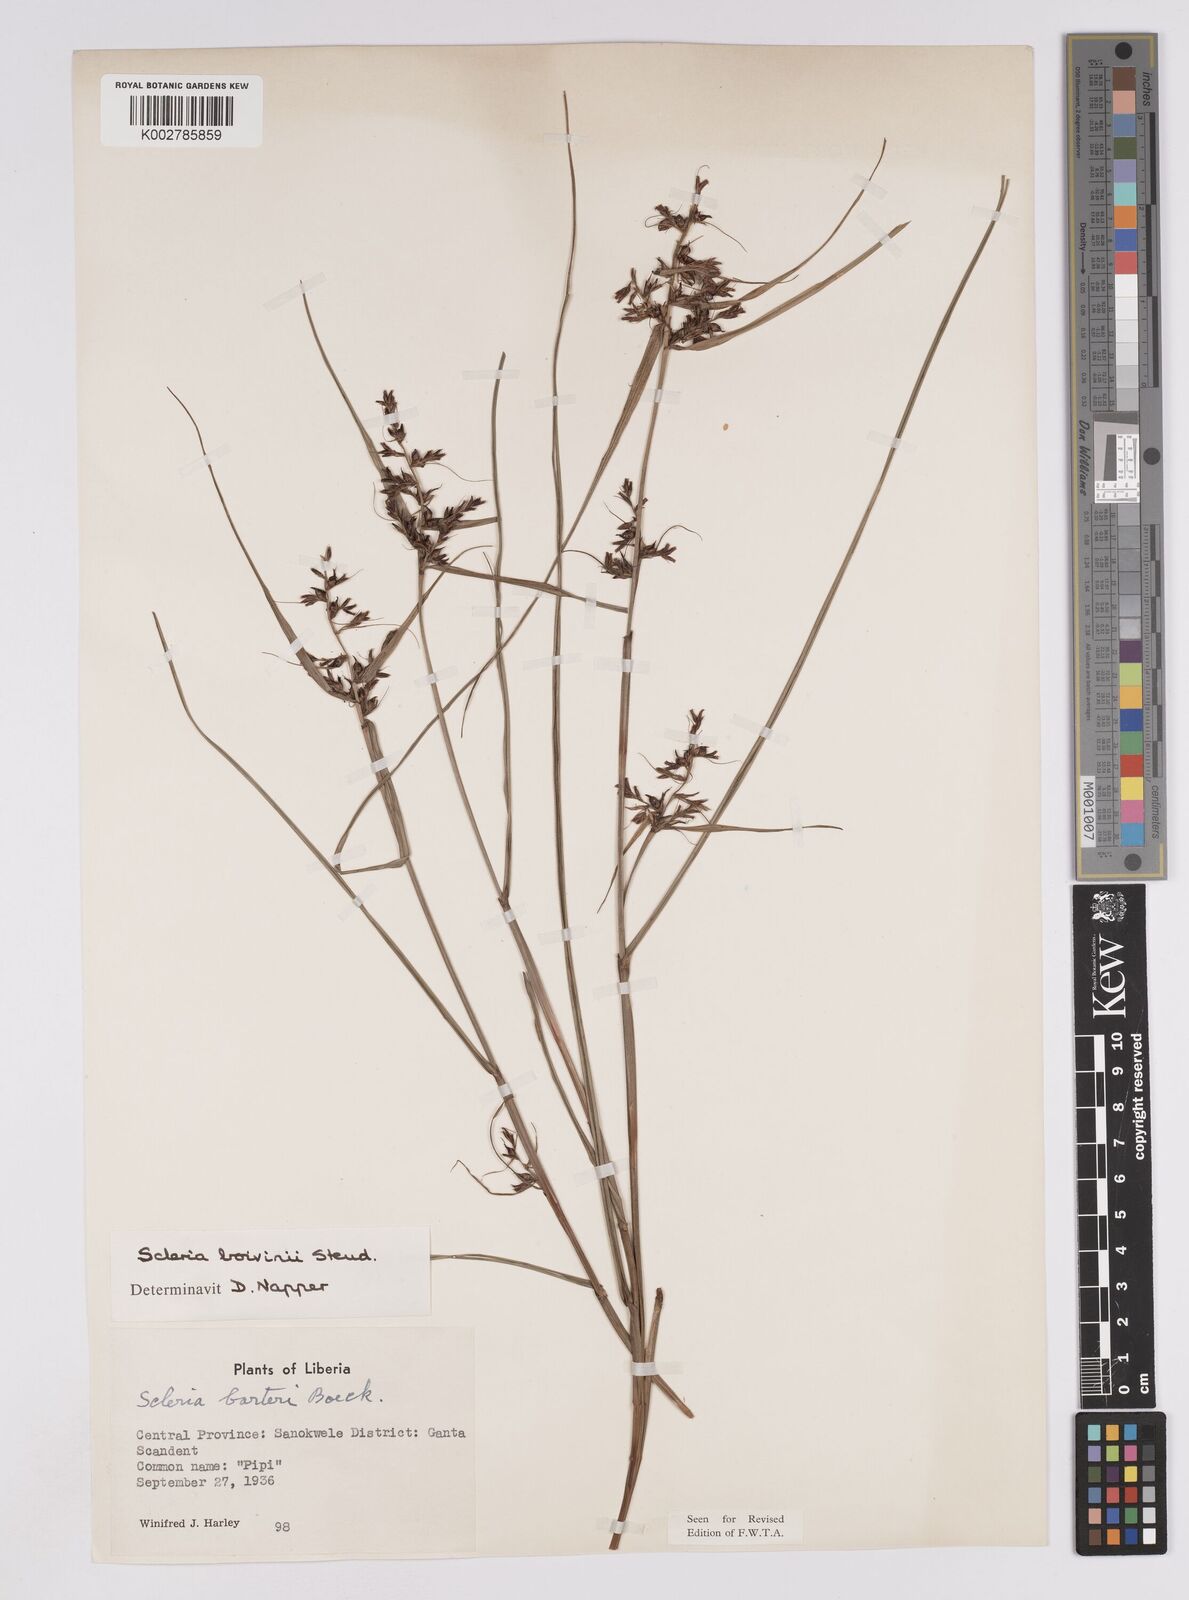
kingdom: Plantae
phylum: Tracheophyta
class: Liliopsida
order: Poales
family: Cyperaceae
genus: Scleria
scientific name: Scleria boivinii
